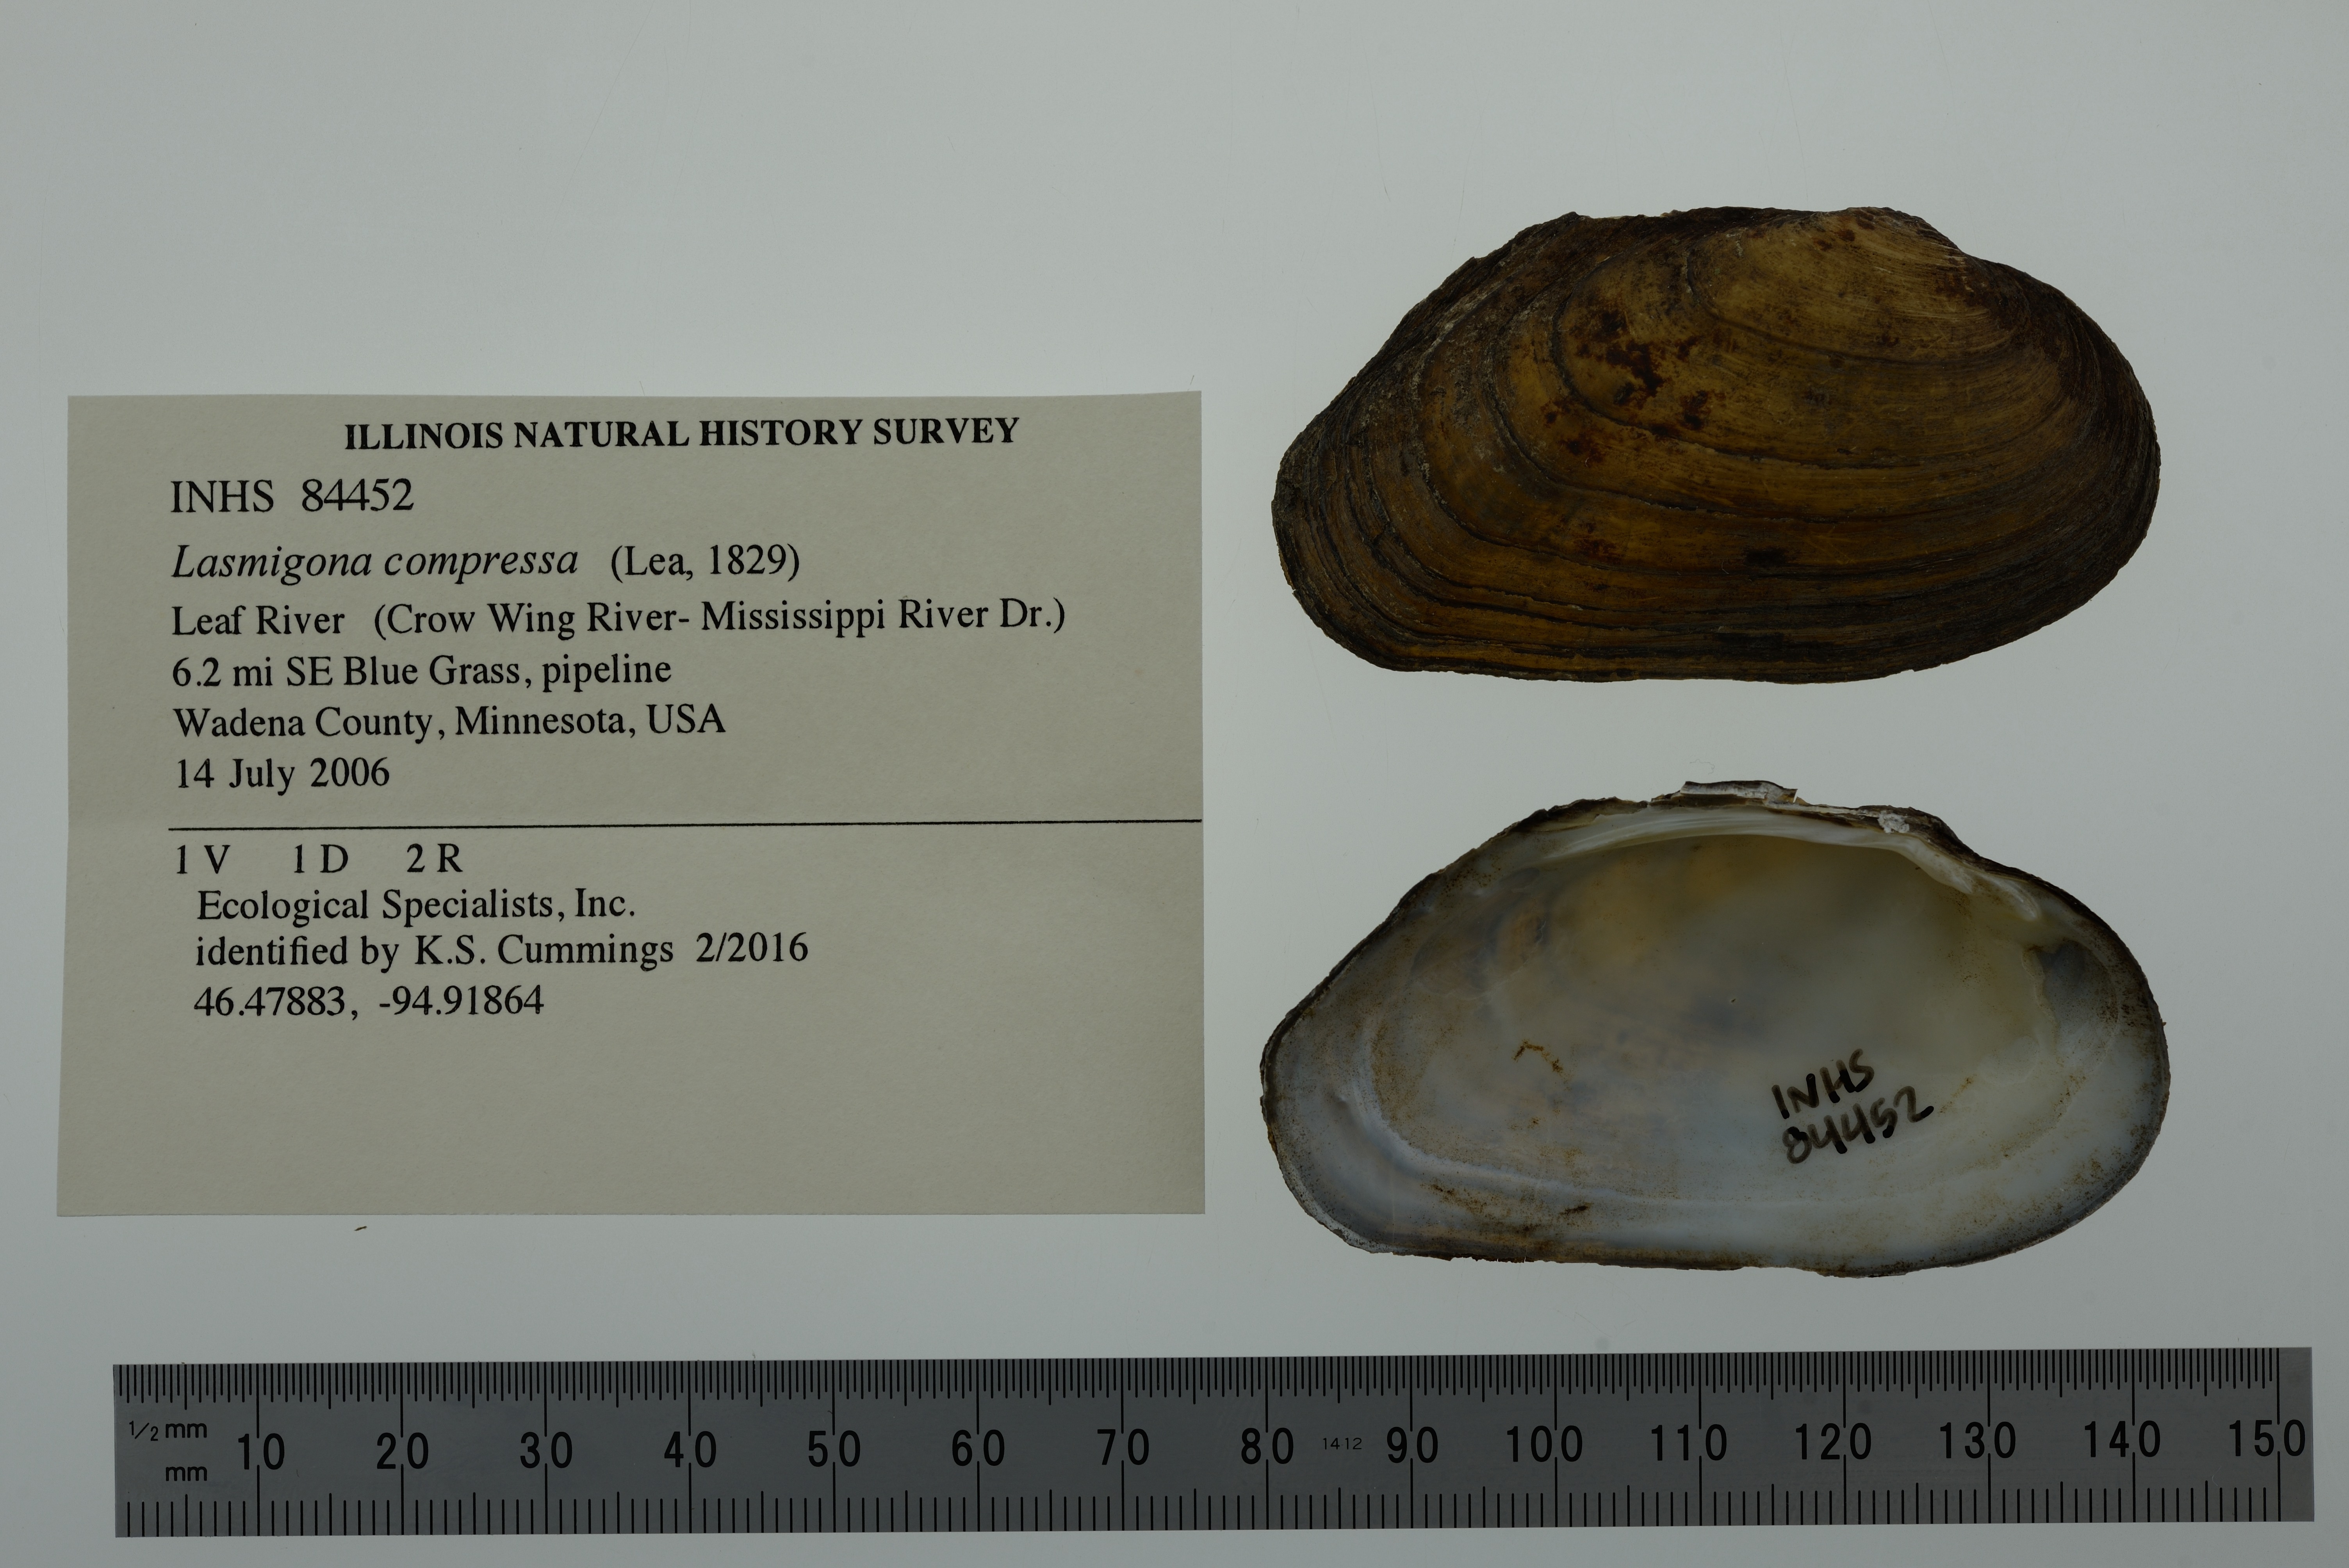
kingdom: Animalia
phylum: Mollusca
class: Bivalvia
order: Unionida
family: Unionidae
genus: Lasmigona
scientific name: Lasmigona compressa
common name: Creek heelsplitter
